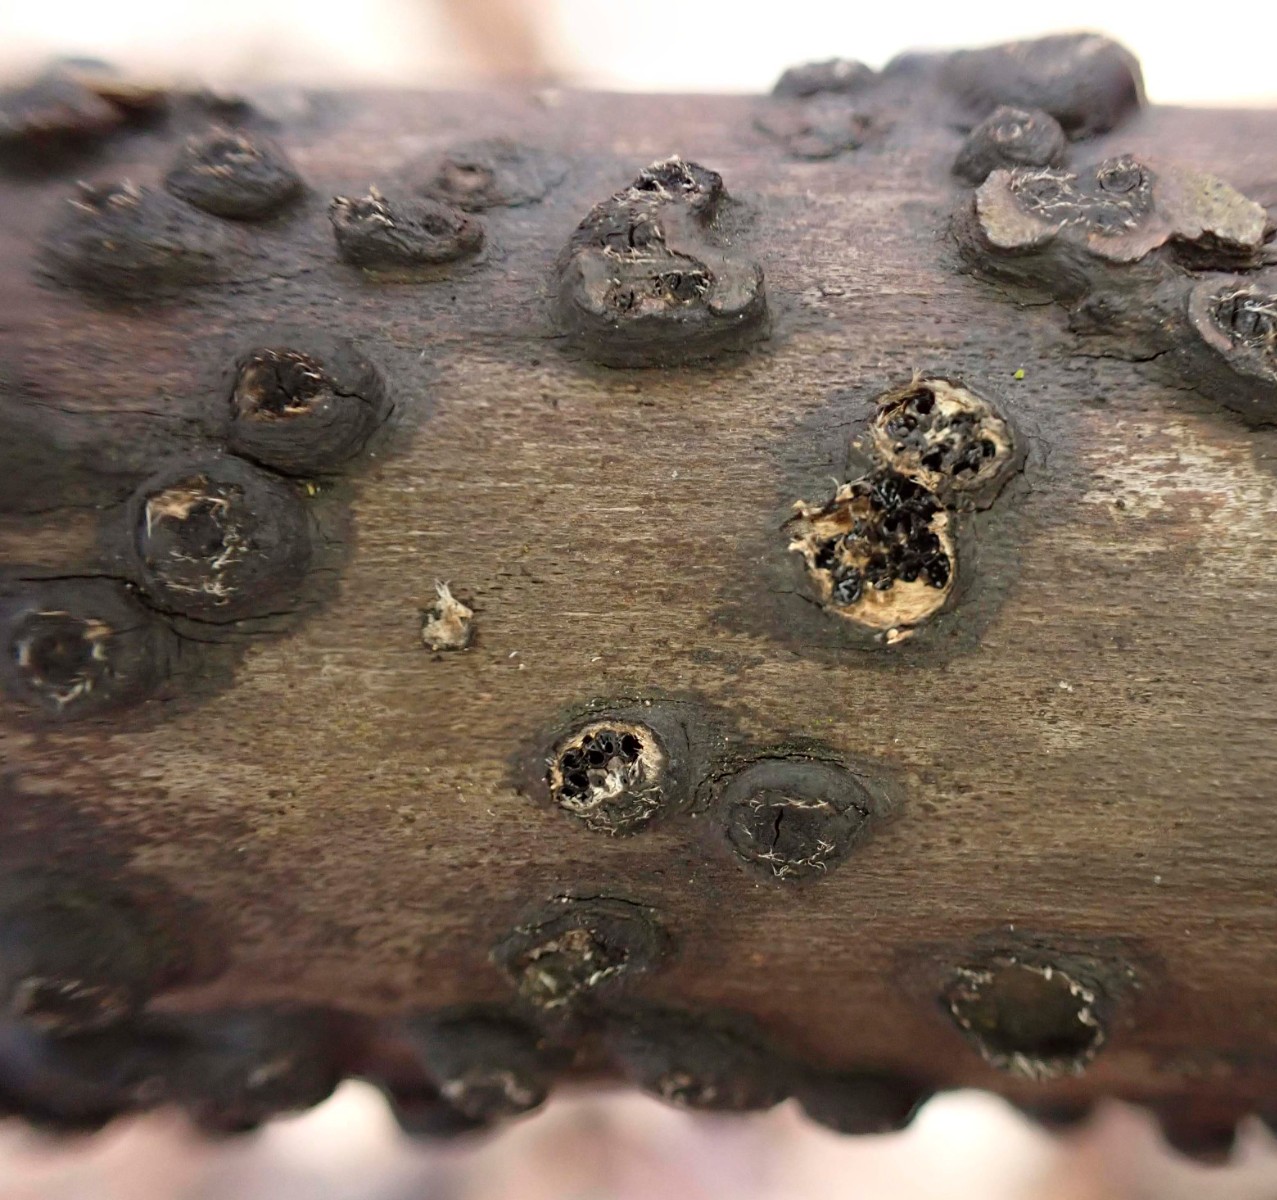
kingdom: Fungi
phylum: Ascomycota
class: Sordariomycetes
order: Xylariales
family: Diatrypaceae
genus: Anthostoma
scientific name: Anthostoma gastrinum
